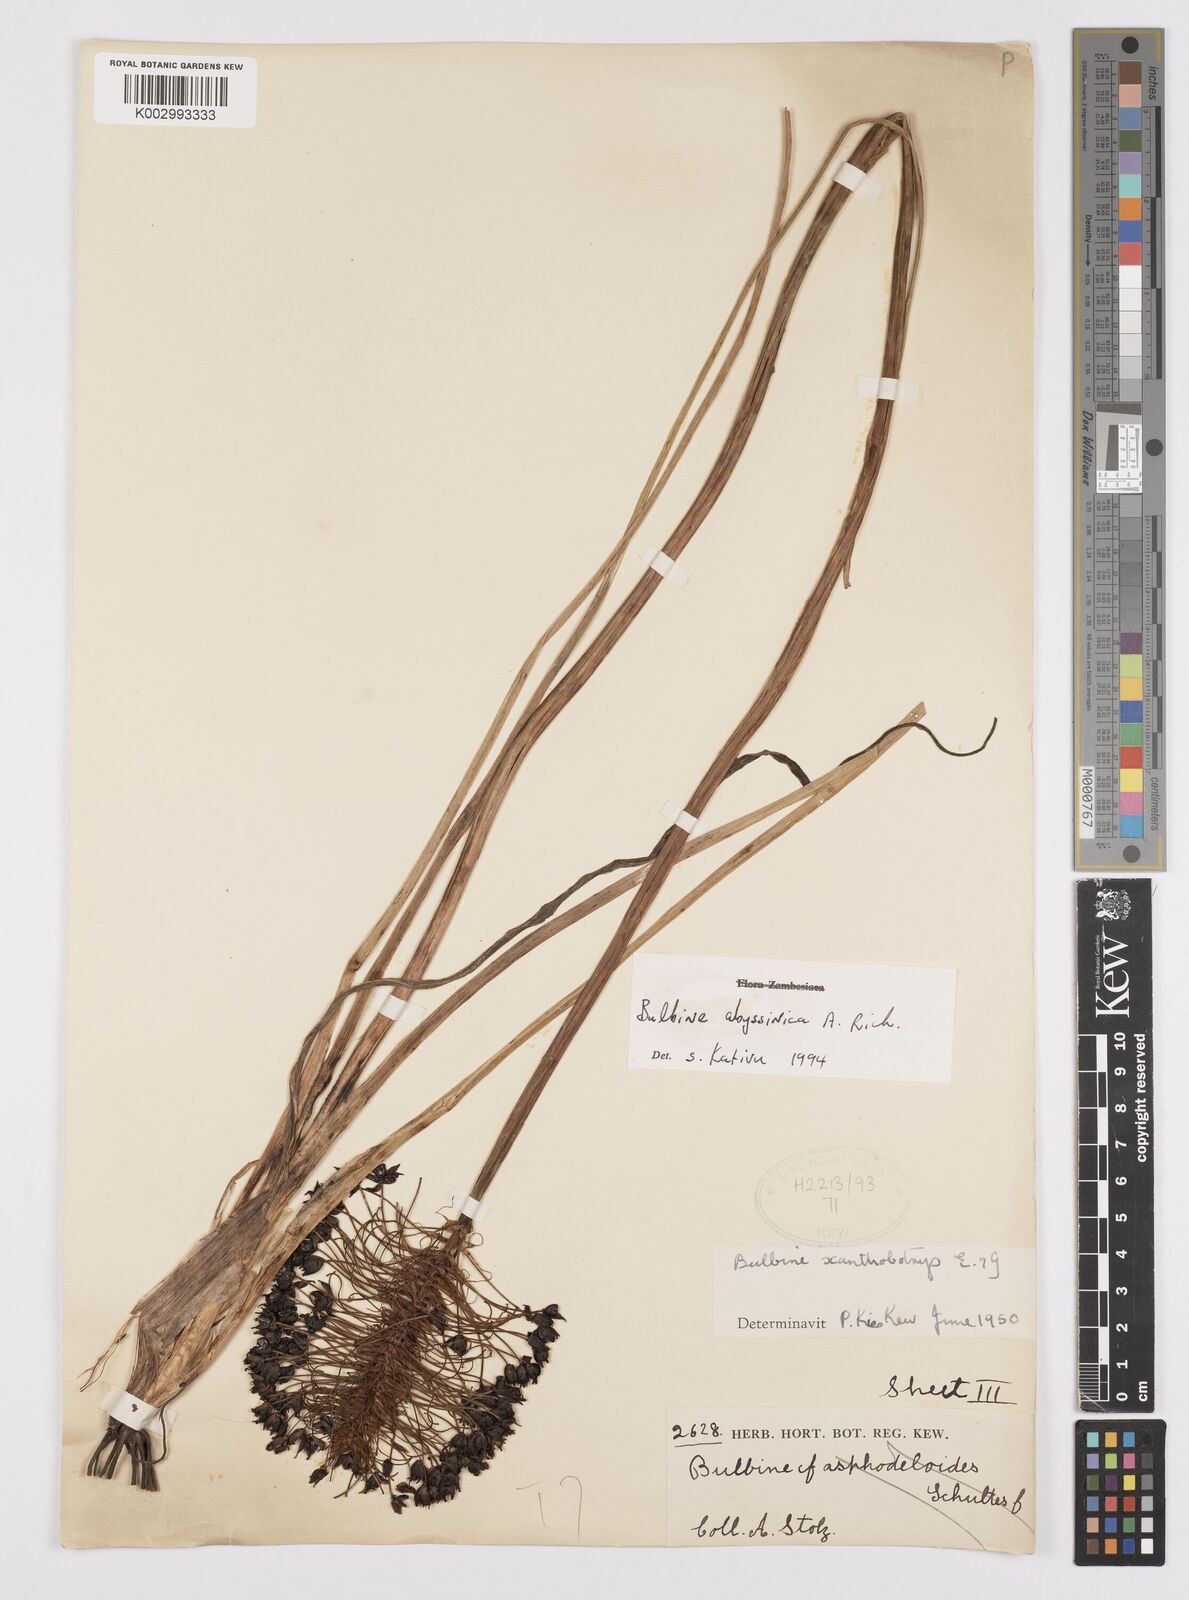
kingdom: Plantae
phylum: Tracheophyta
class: Liliopsida
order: Asparagales
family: Asphodelaceae
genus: Bulbine
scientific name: Bulbine abyssinica
